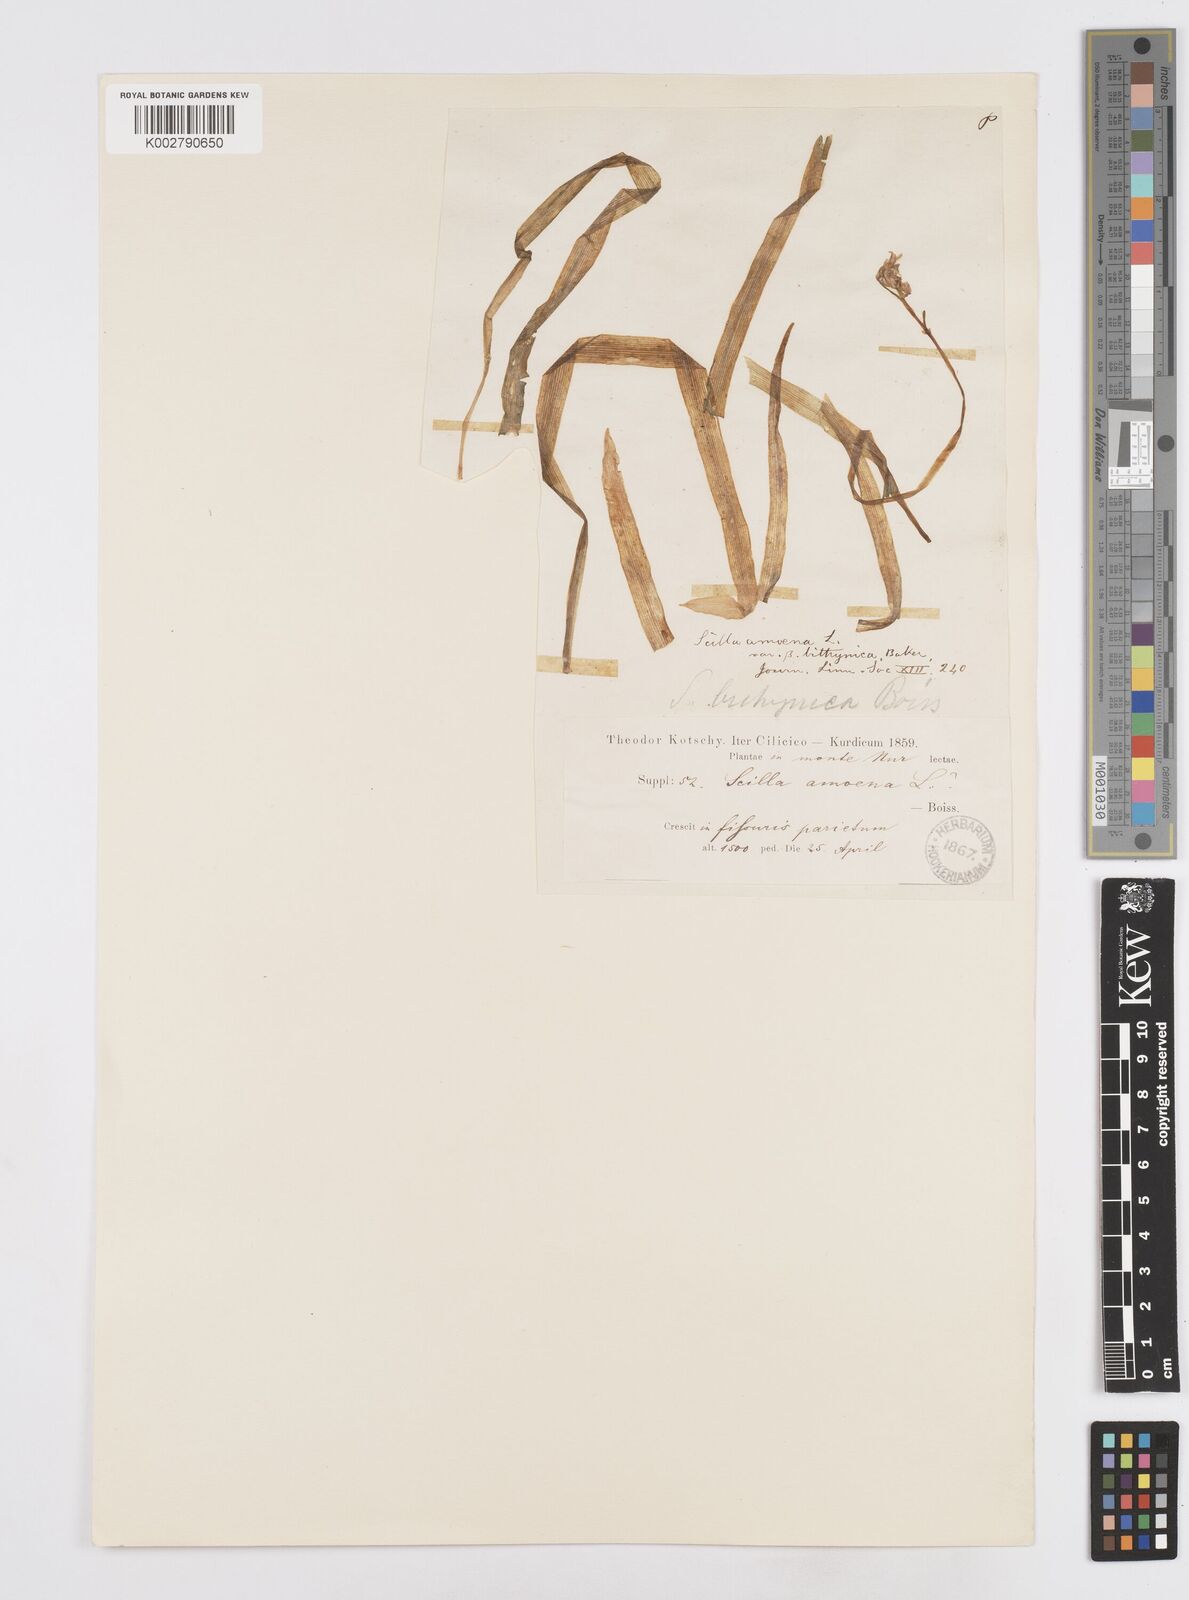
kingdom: Plantae
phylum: Tracheophyta
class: Liliopsida
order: Asparagales
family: Asparagaceae
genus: Scilla
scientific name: Scilla cilicica
